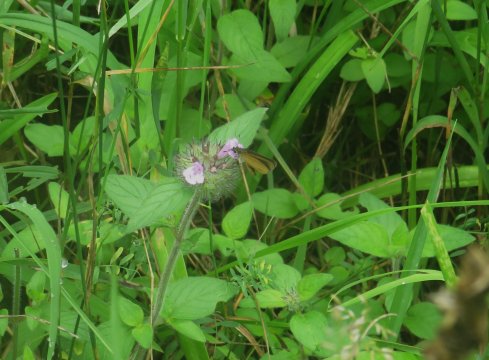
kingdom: Animalia
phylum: Arthropoda
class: Insecta
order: Lepidoptera
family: Hesperiidae
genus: Ancyloxypha
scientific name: Ancyloxypha numitor
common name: Least Skipper
